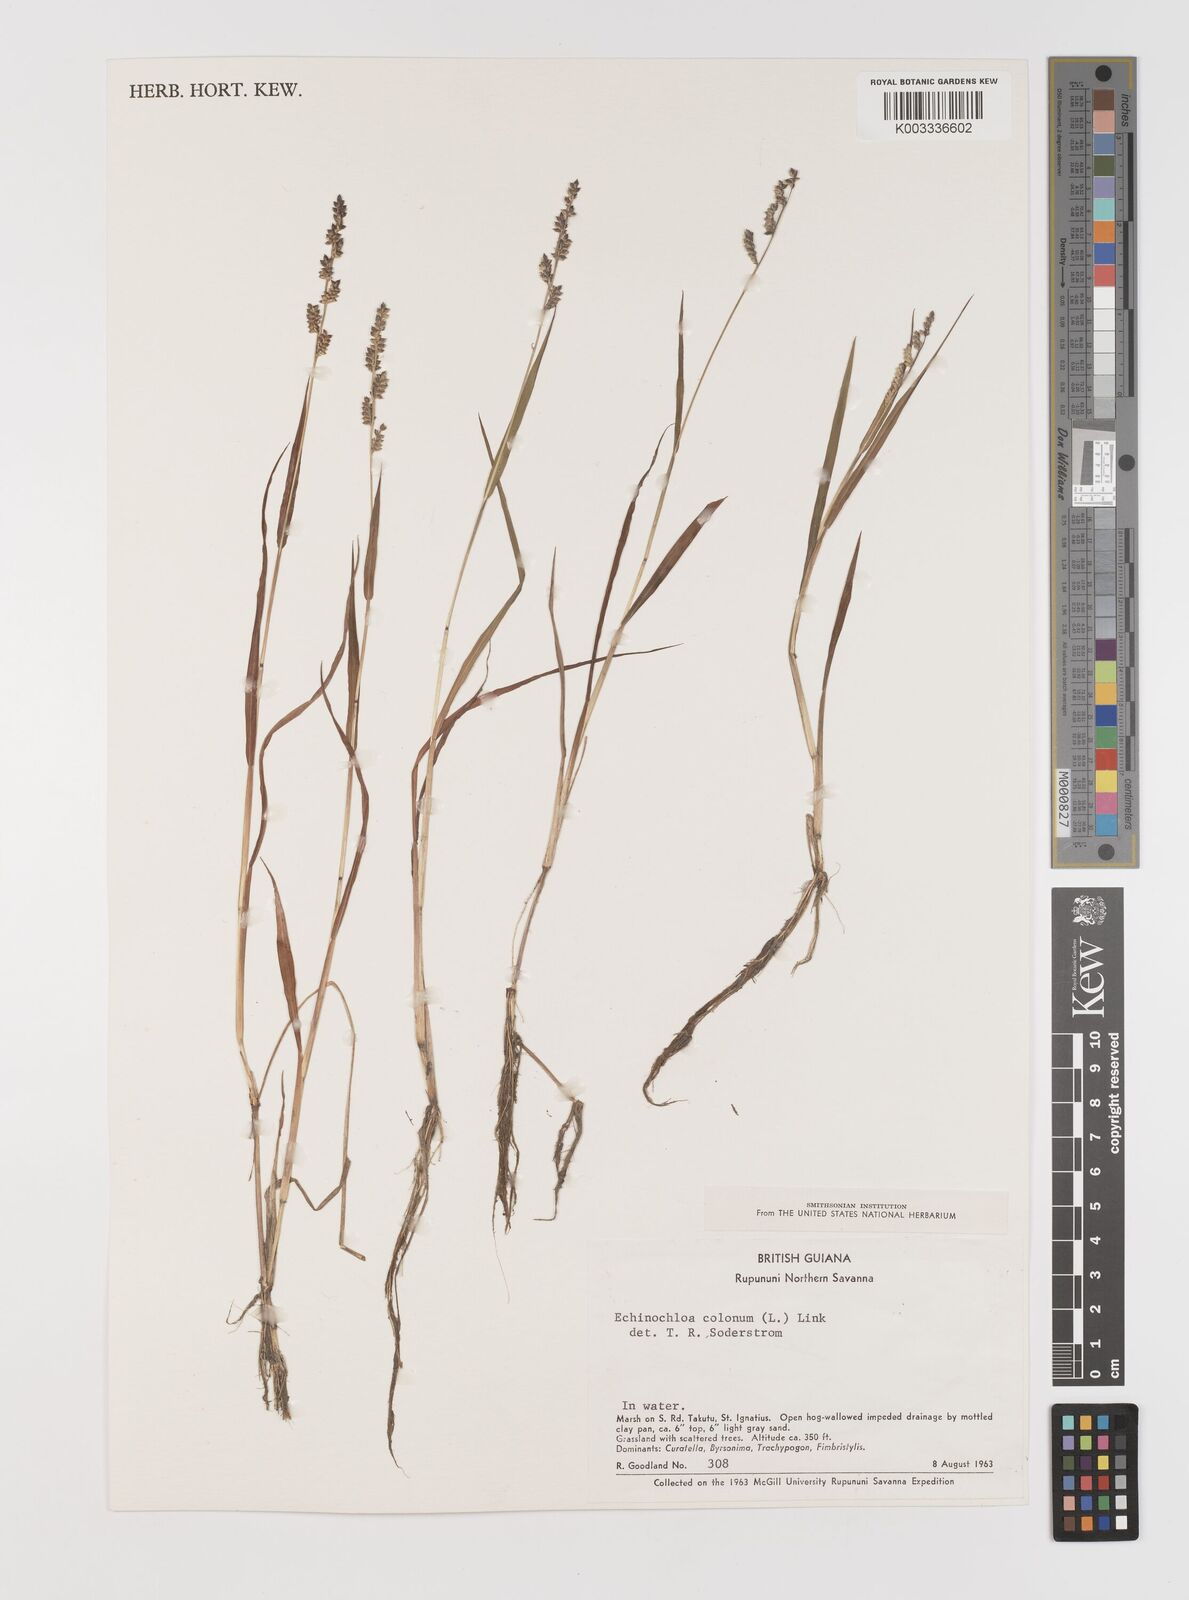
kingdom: Plantae
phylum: Tracheophyta
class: Liliopsida
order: Poales
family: Poaceae
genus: Echinochloa
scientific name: Echinochloa colonum
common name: Jungle rice
